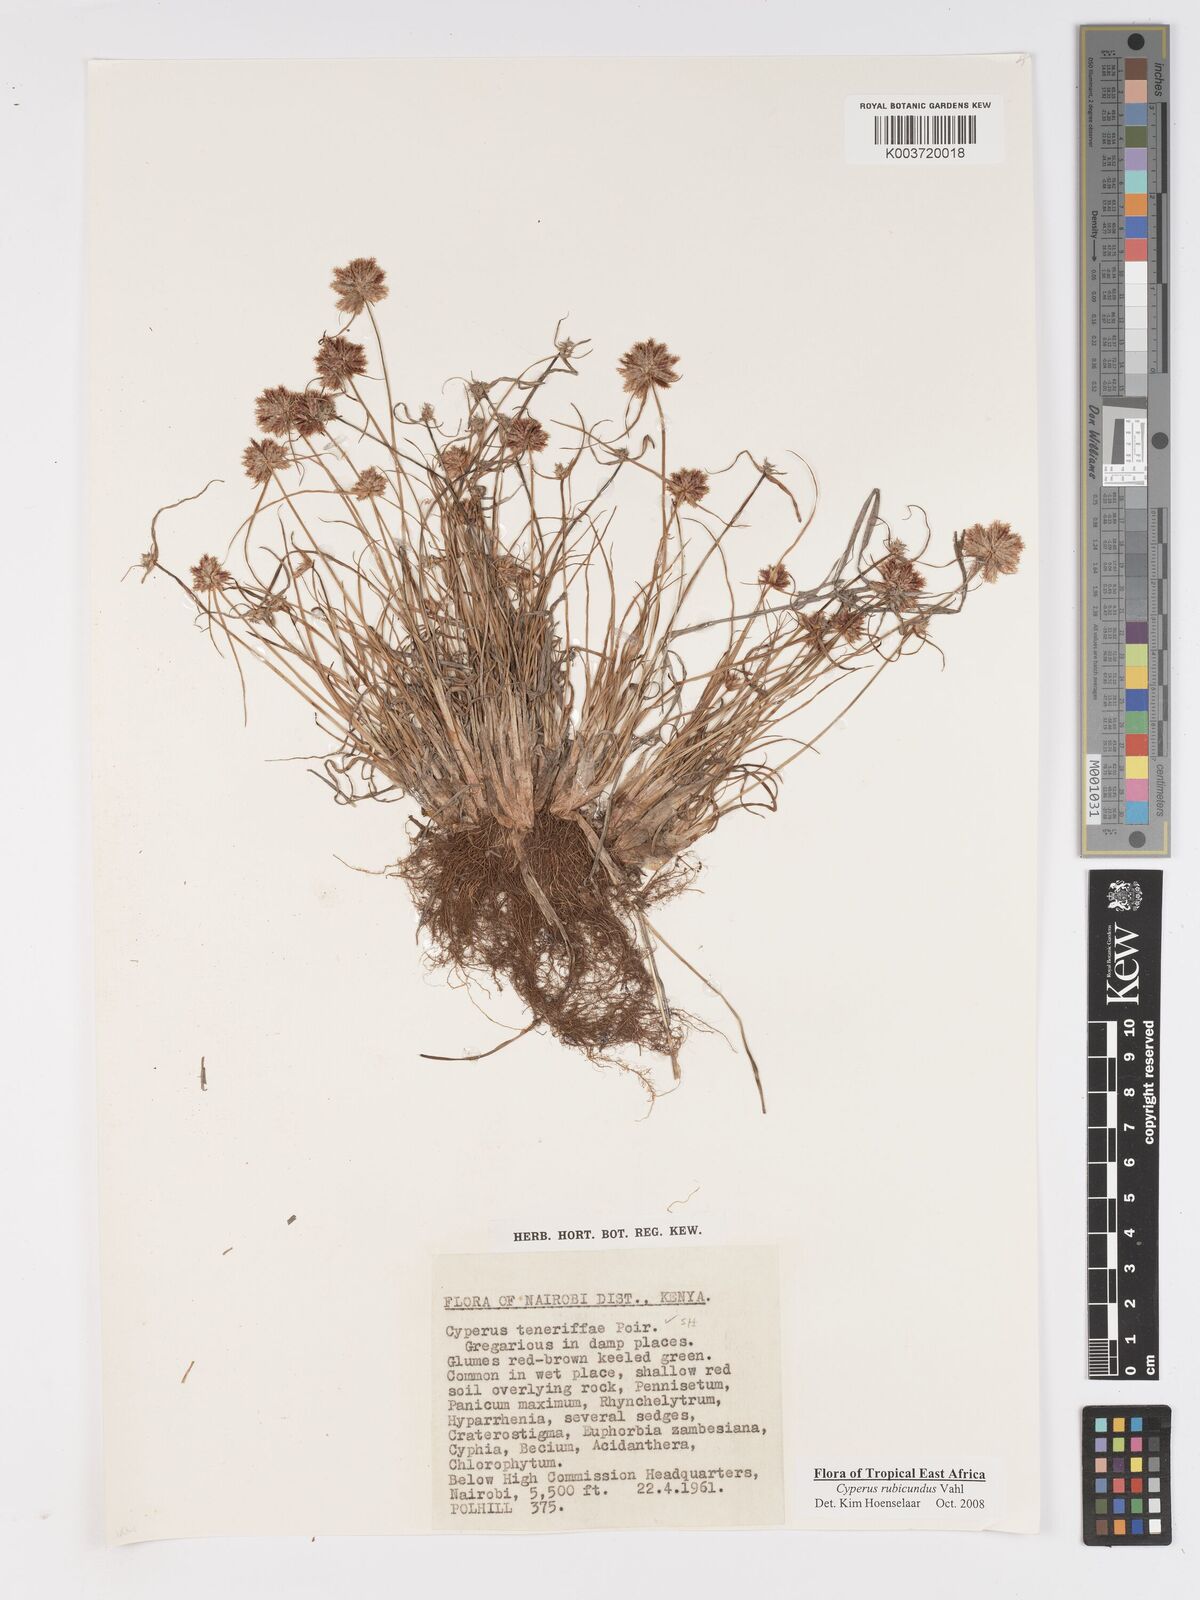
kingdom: Plantae
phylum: Tracheophyta
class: Liliopsida
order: Poales
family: Cyperaceae
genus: Cyperus
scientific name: Cyperus rubicundus
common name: Coco-grass
